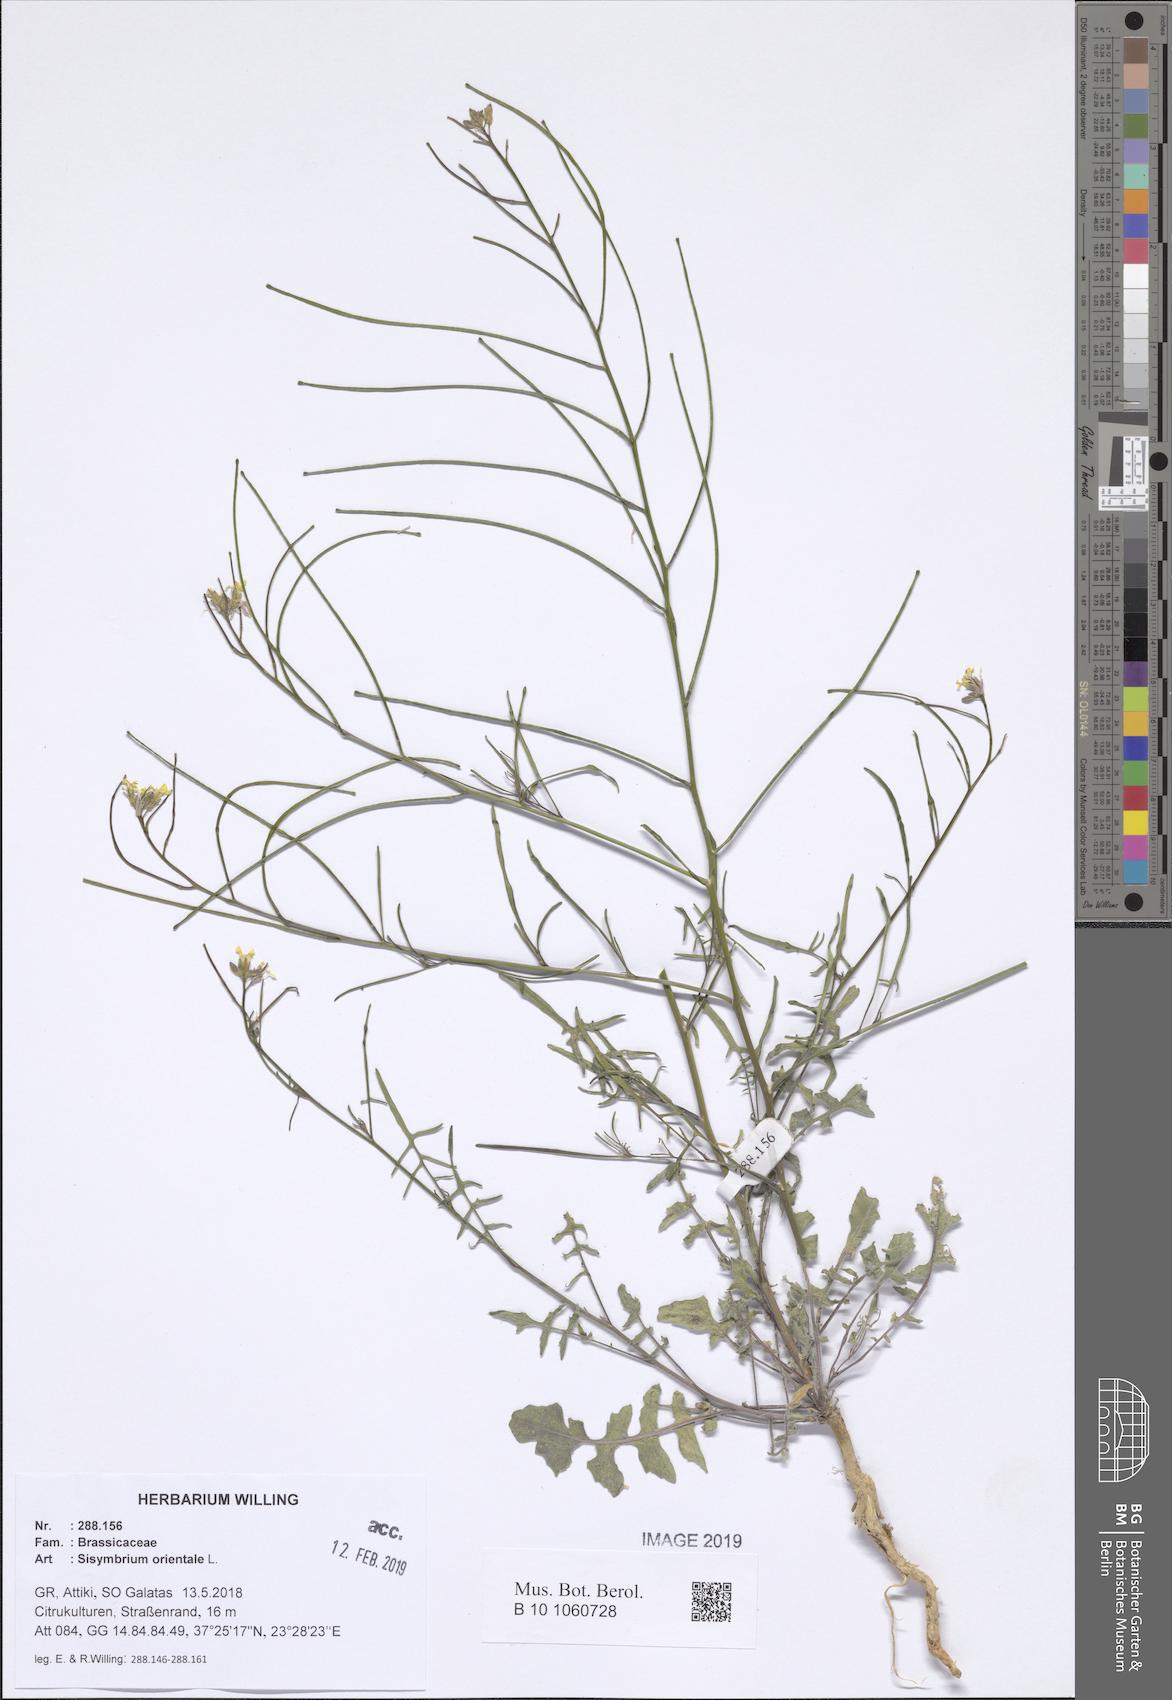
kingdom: Plantae
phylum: Tracheophyta
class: Magnoliopsida
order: Brassicales
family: Brassicaceae
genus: Sisymbrium
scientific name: Sisymbrium orientale
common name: Eastern rocket
